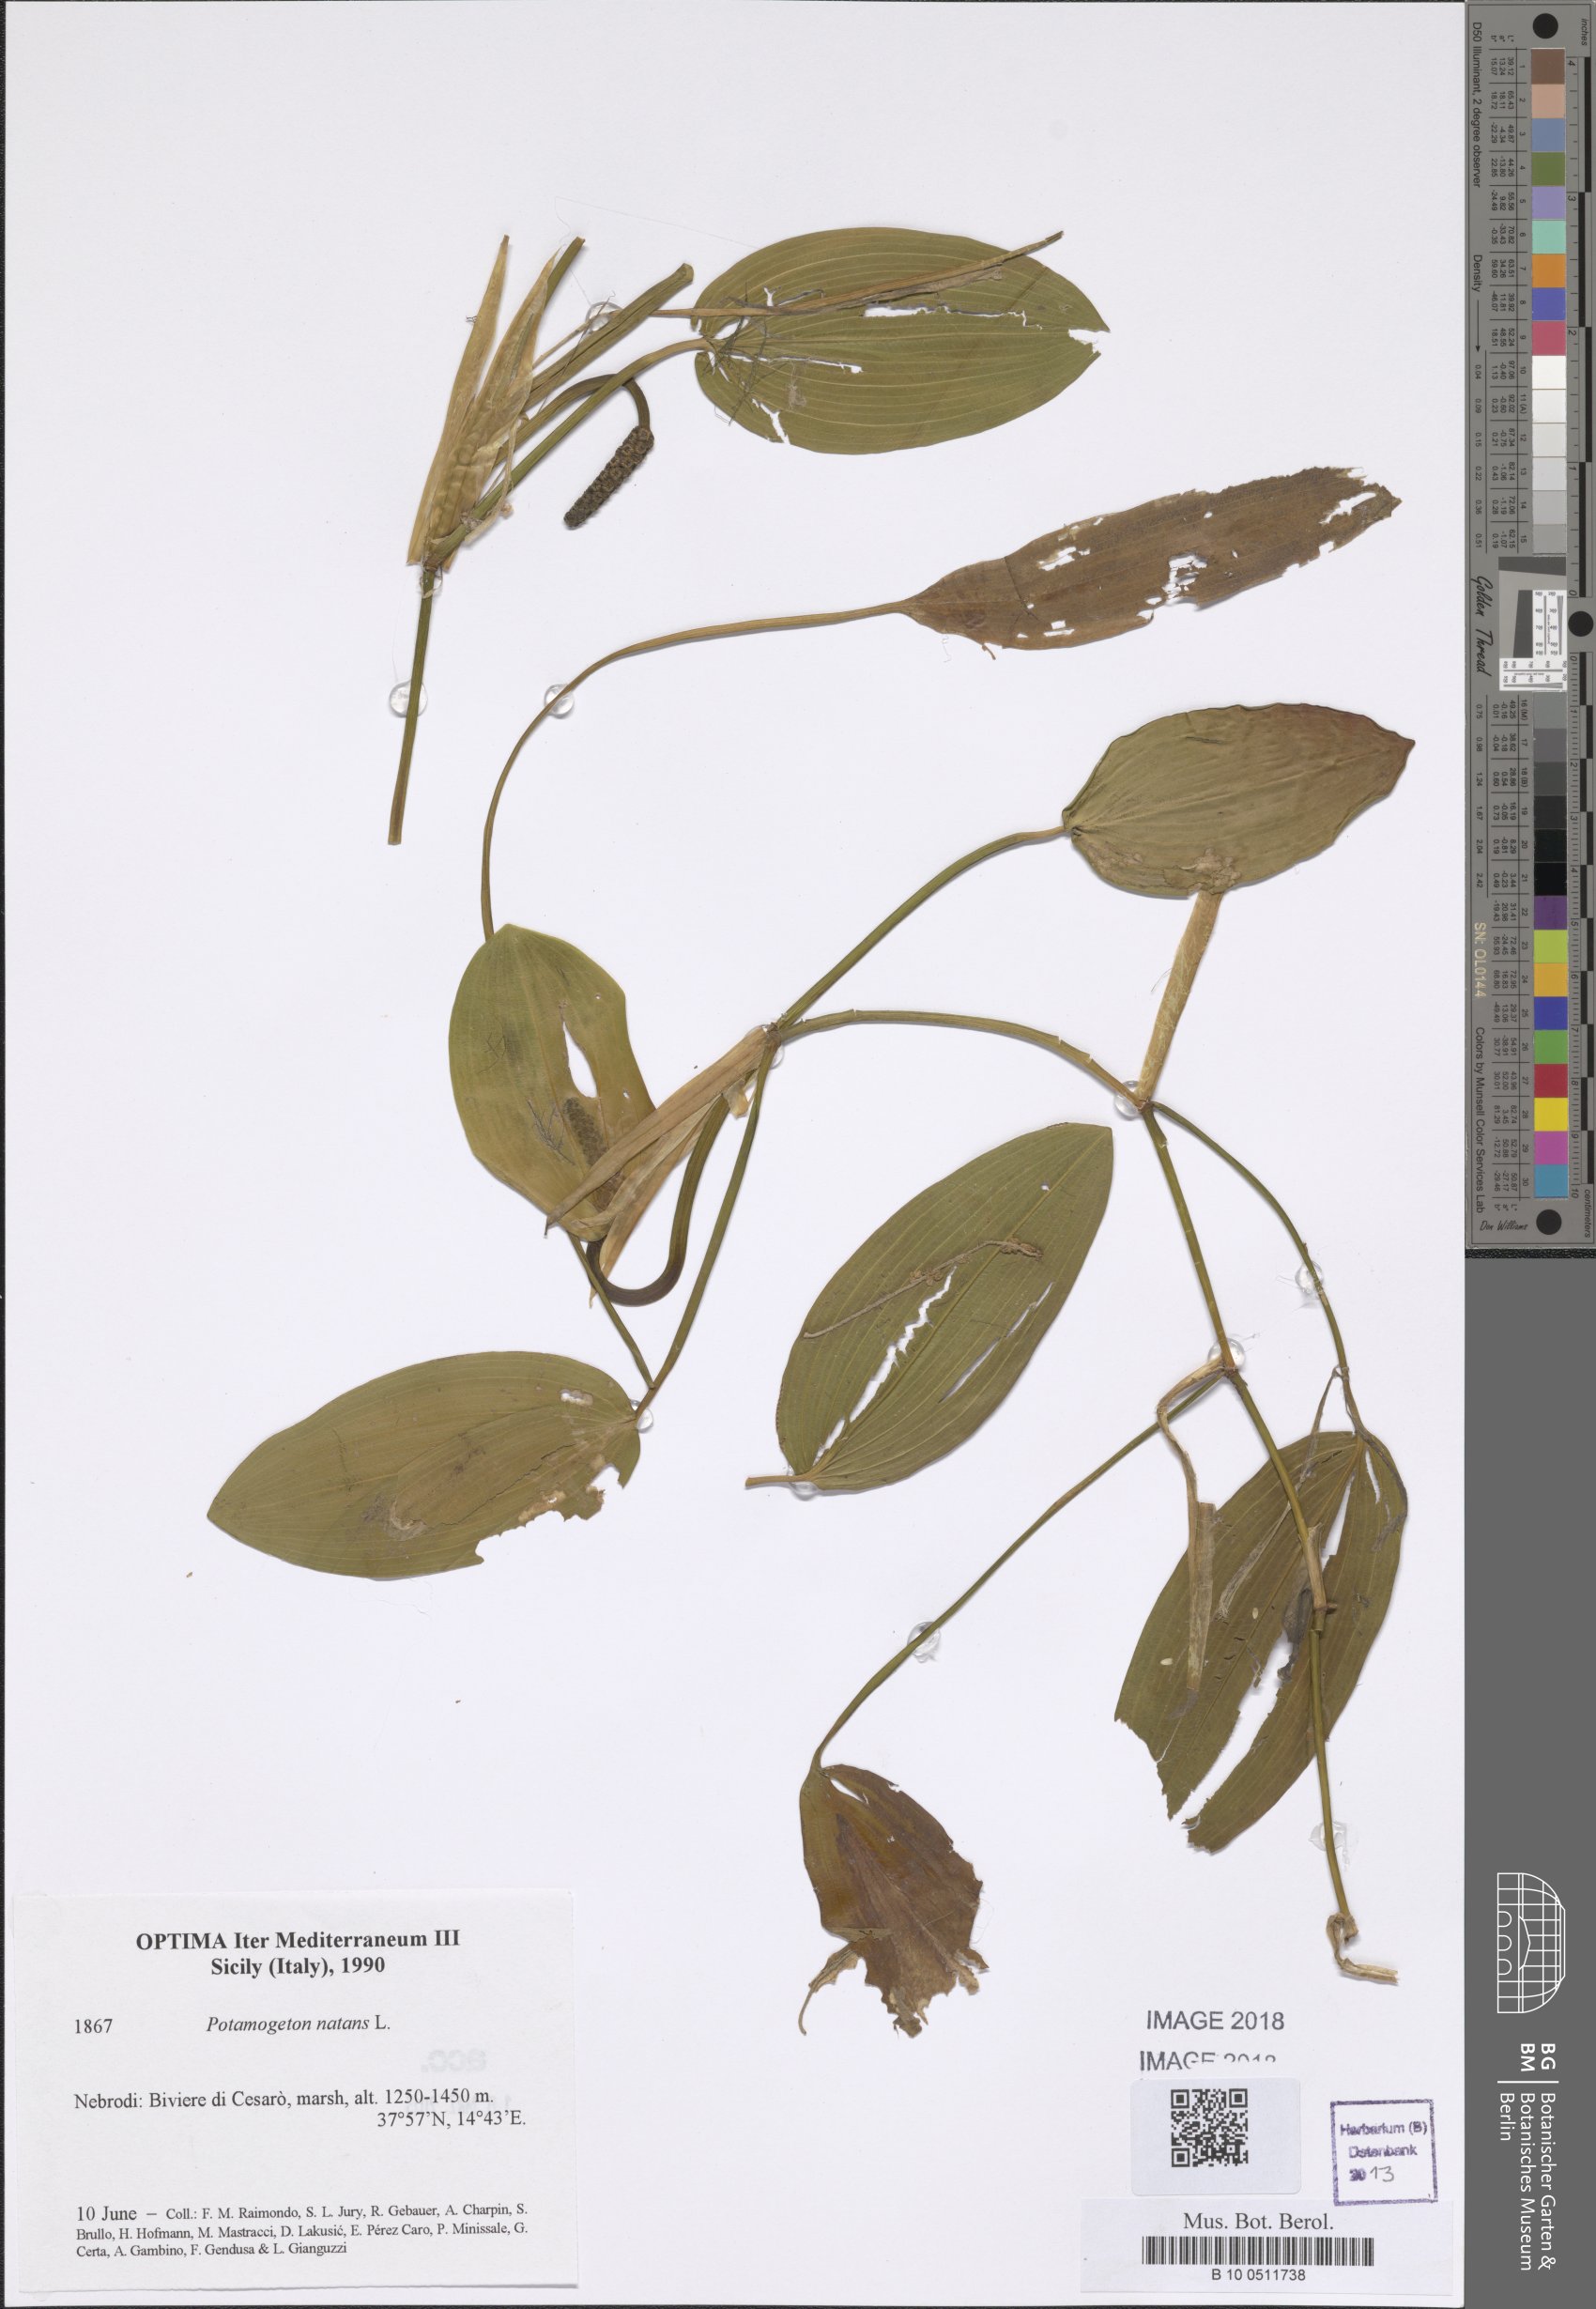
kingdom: Plantae
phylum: Tracheophyta
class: Liliopsida
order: Alismatales
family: Potamogetonaceae
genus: Potamogeton
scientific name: Potamogeton natans
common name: Broad-leaved pondweed
